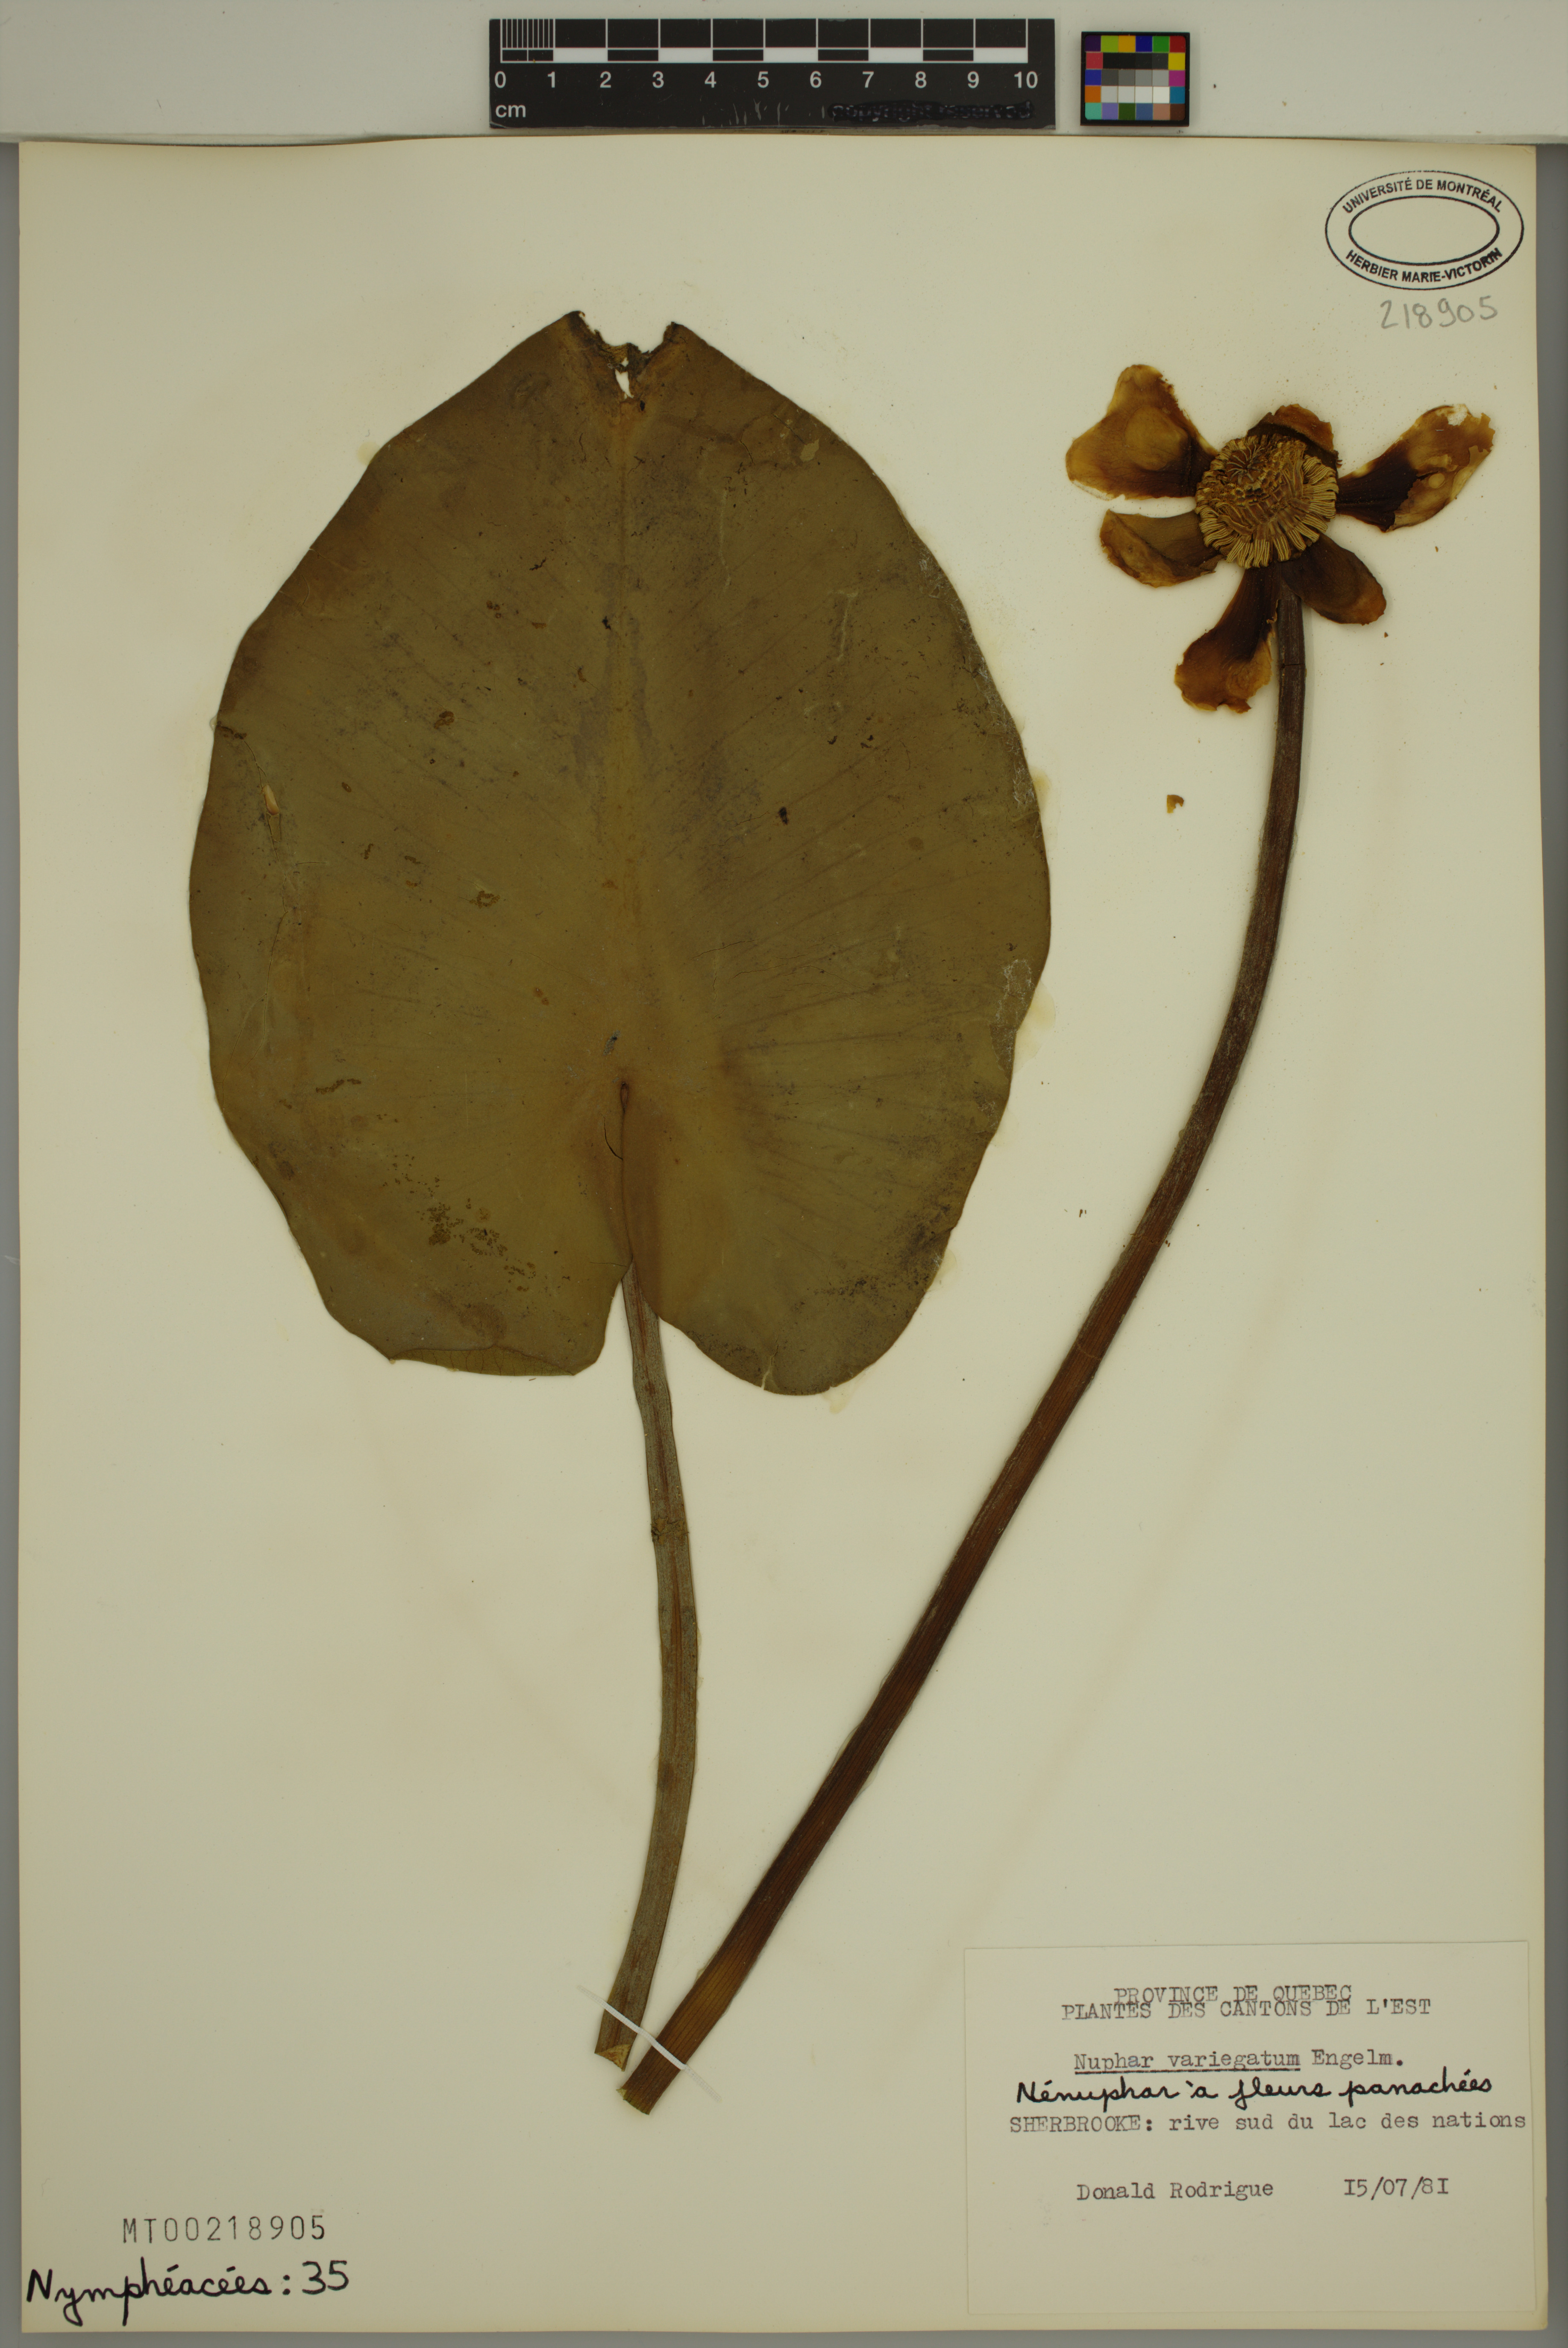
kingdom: Plantae
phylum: Tracheophyta
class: Magnoliopsida
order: Nymphaeales
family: Nymphaeaceae
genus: Nuphar
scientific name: Nuphar variegata
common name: Beaver-root
